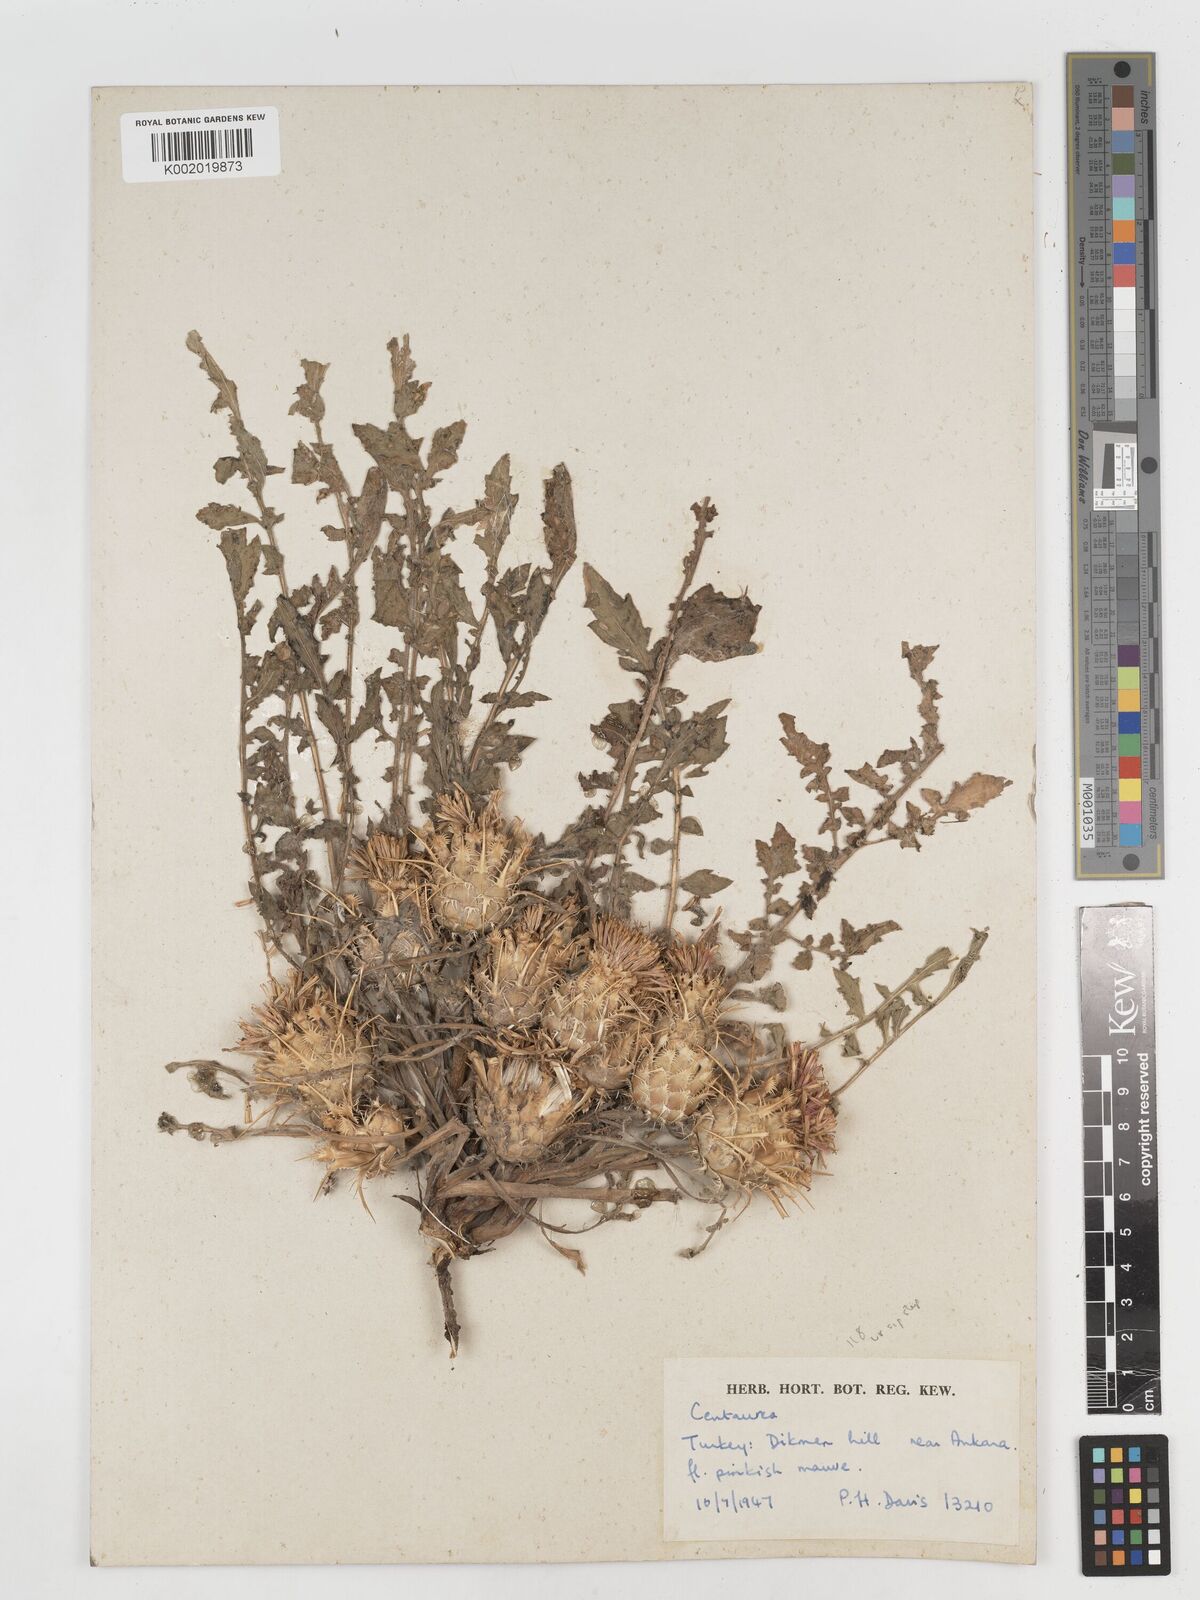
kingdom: Plantae
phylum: Tracheophyta
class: Magnoliopsida
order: Asterales
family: Asteraceae
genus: Centaurea
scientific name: Centaurea urvillei
